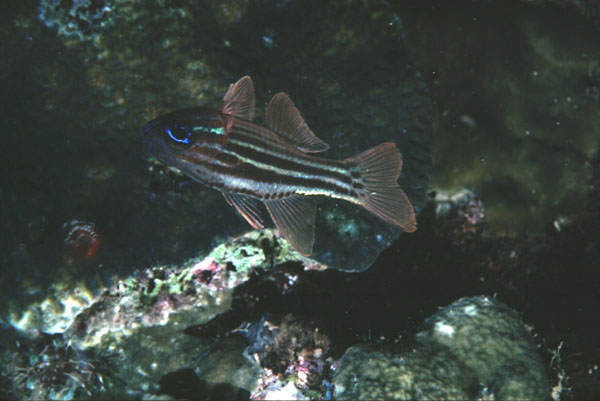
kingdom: Animalia
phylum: Chordata
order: Perciformes
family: Apogonidae
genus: Ostorhinchus
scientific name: Ostorhinchus compressus
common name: Ochre-striped cardinalfish
